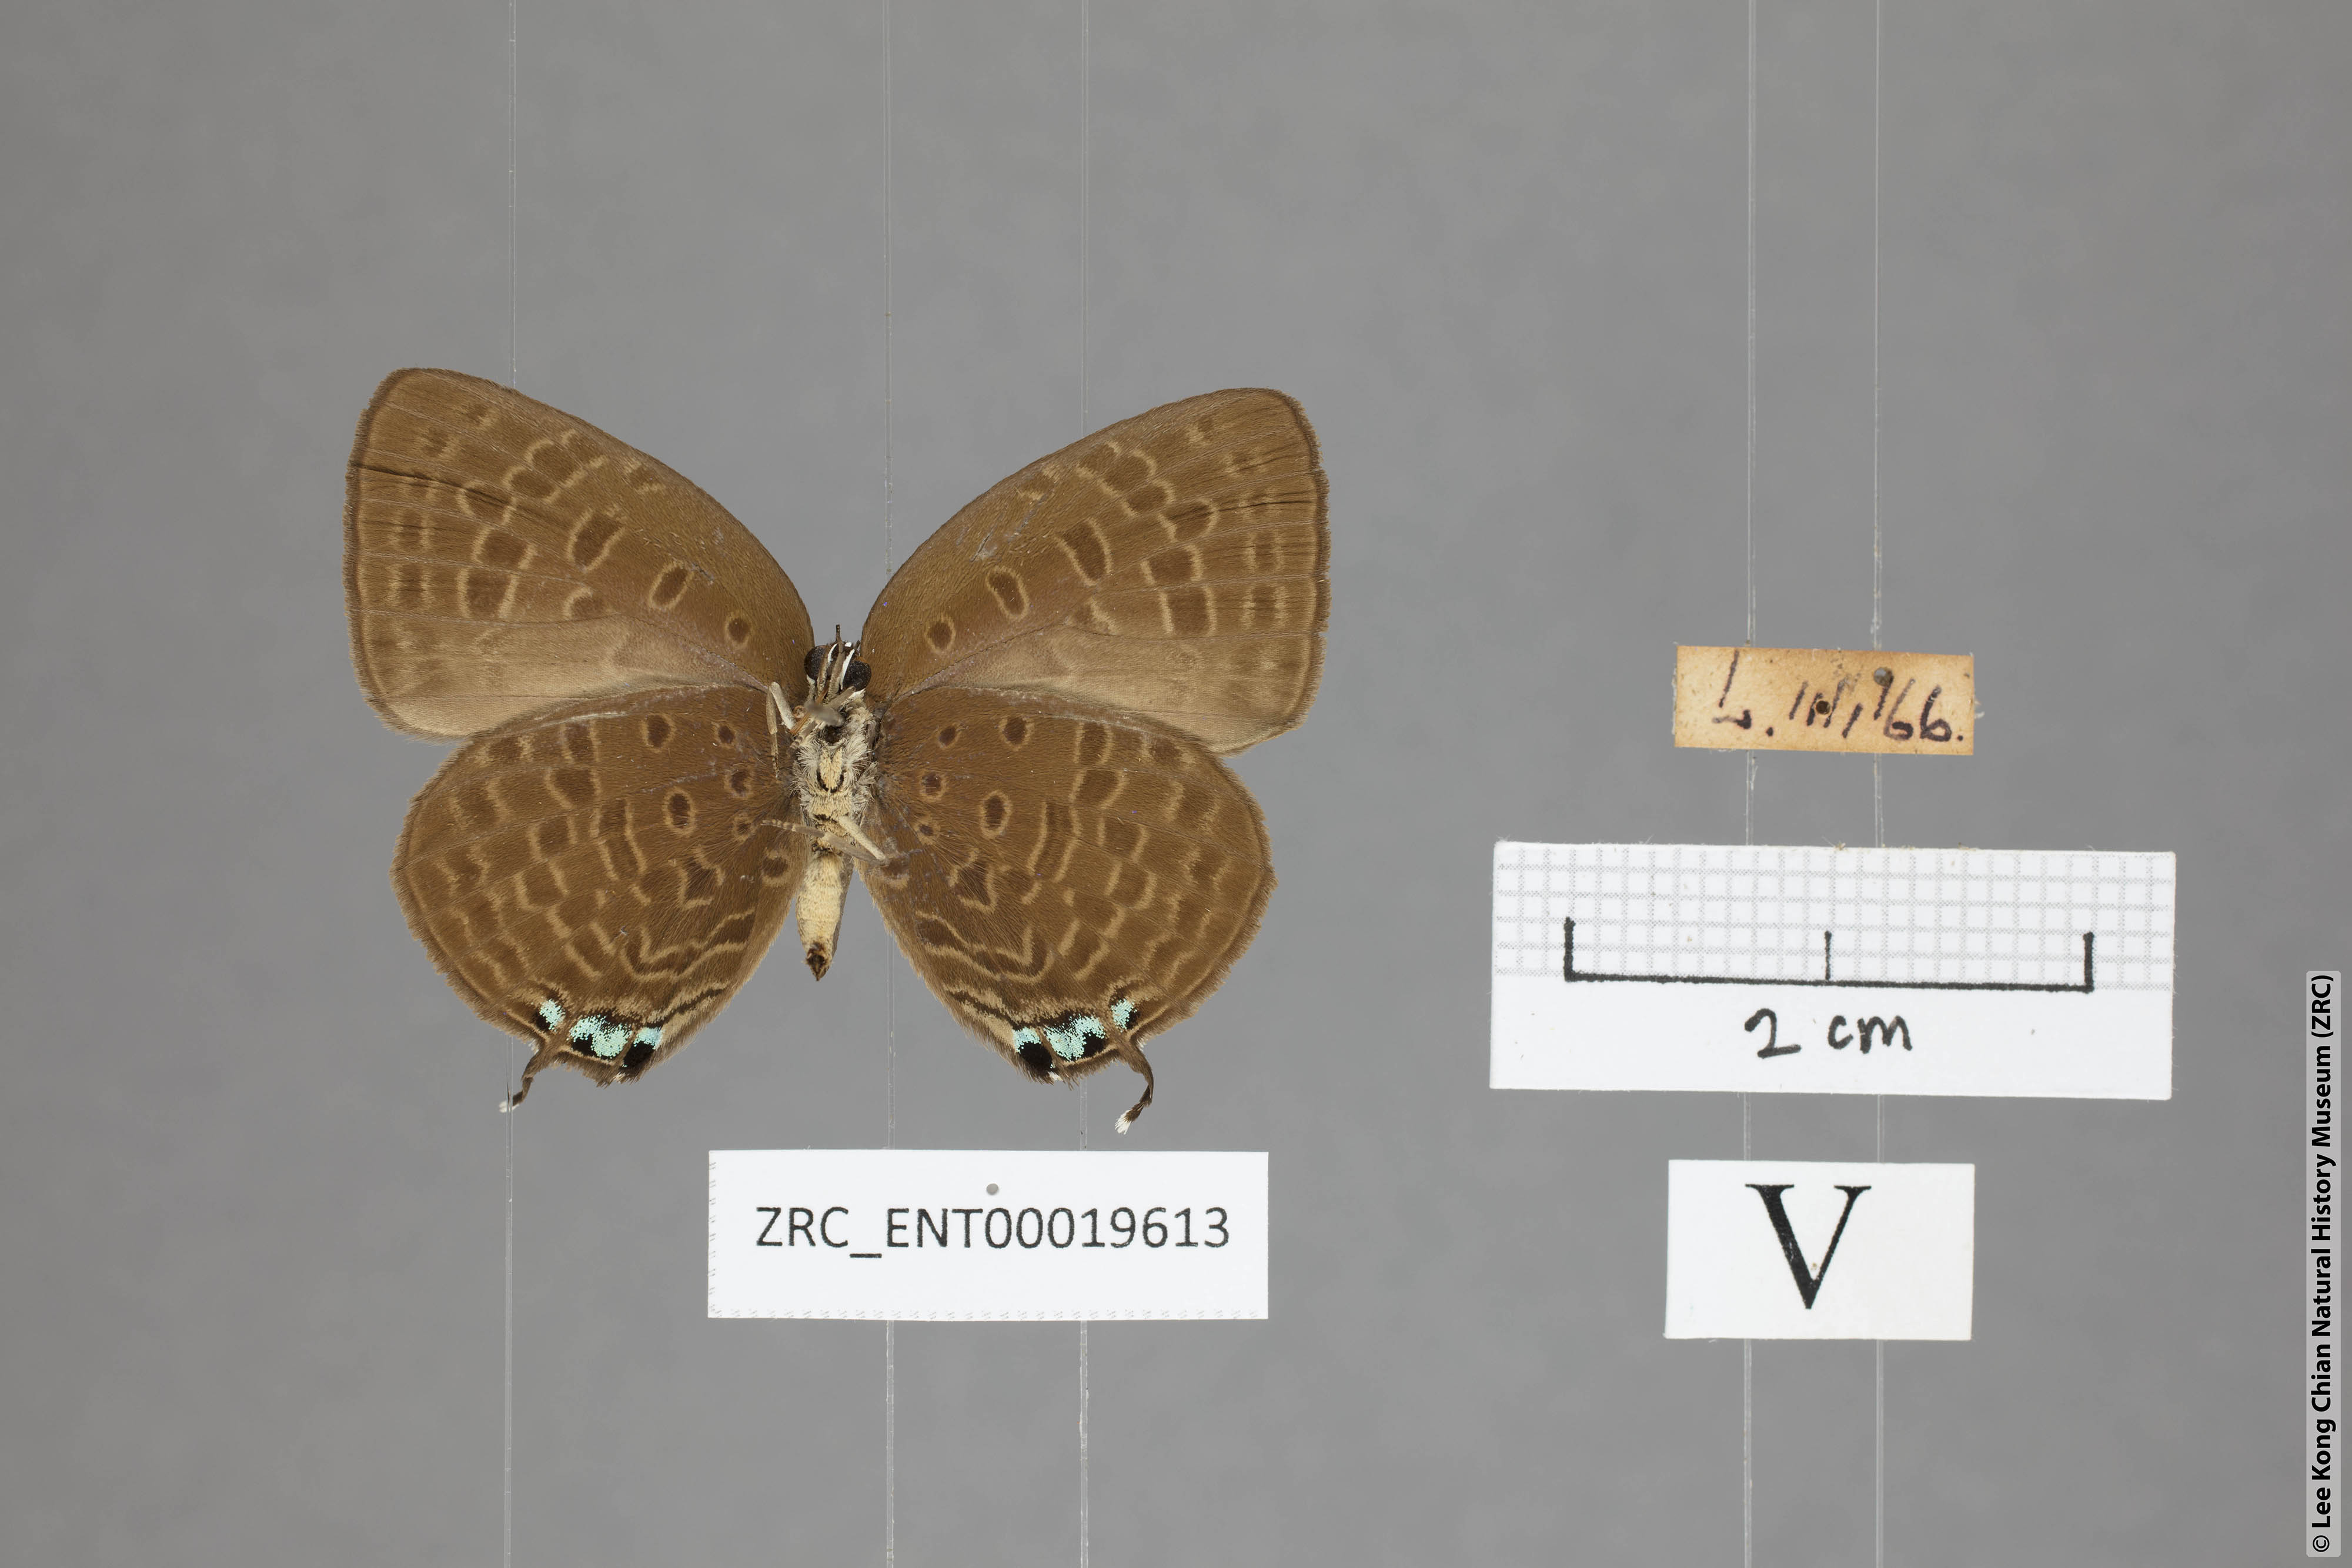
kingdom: Animalia
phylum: Arthropoda
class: Insecta
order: Lepidoptera
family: Lycaenidae
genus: Arhopala
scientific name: Arhopala atosia
